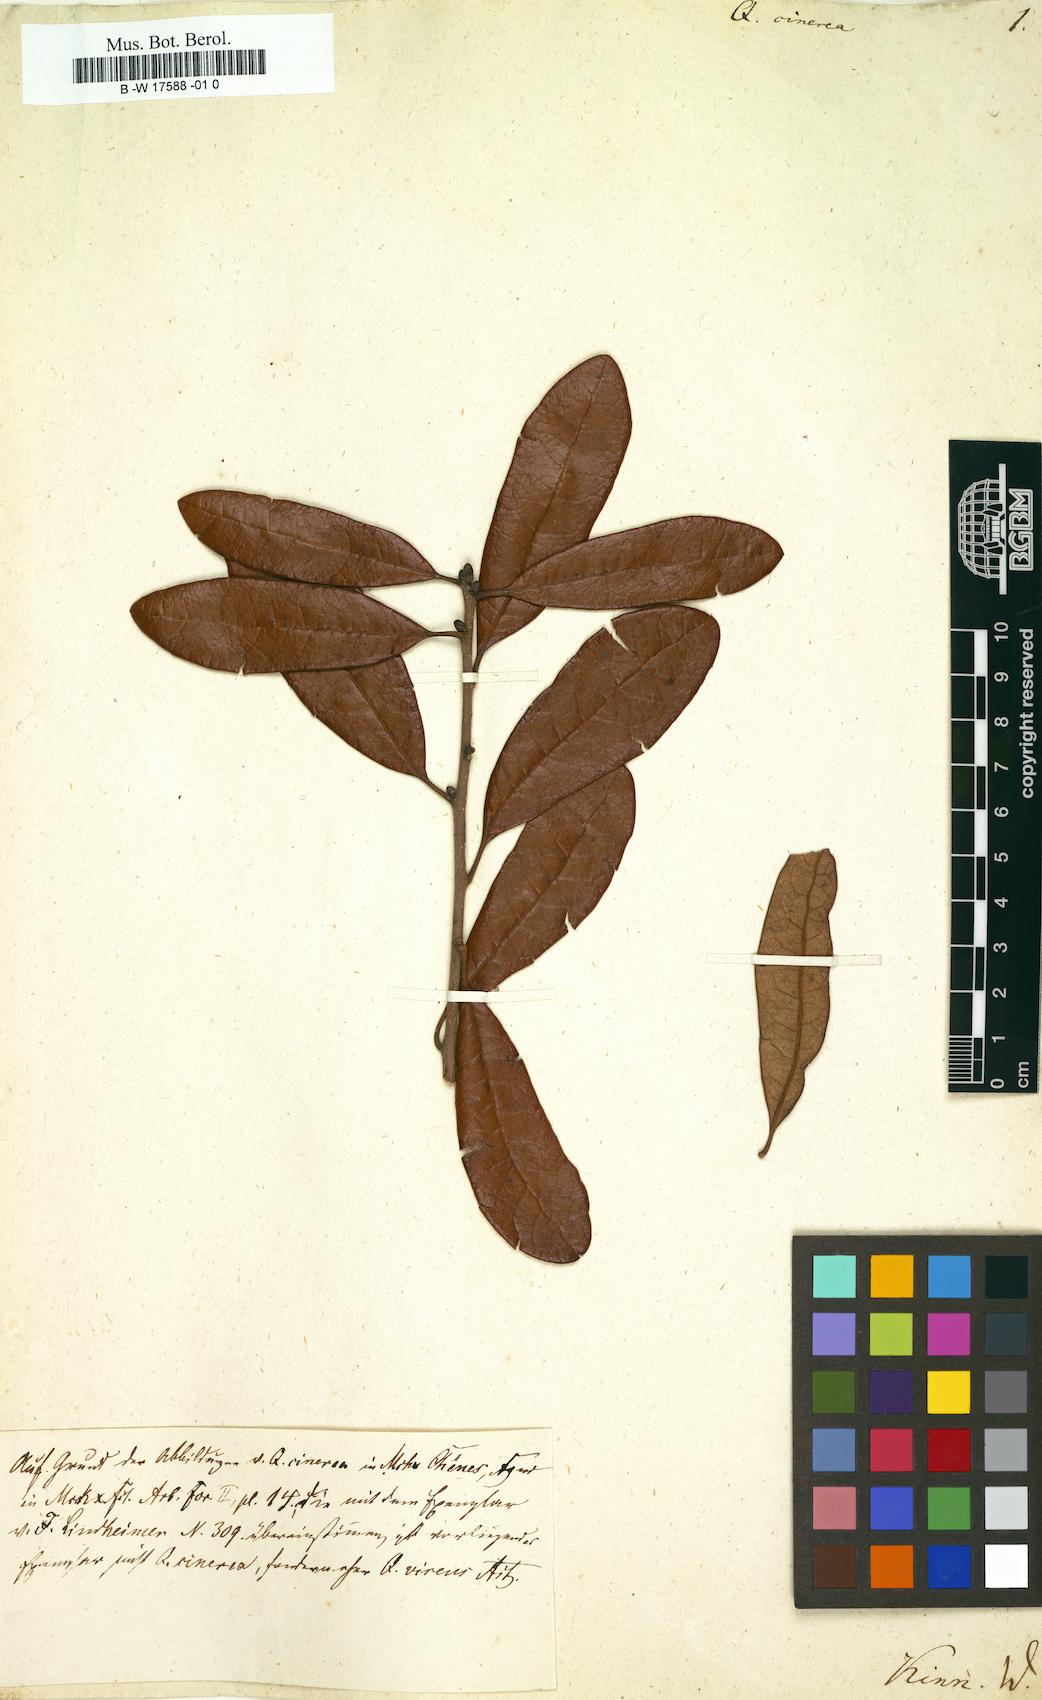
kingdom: Plantae
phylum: Tracheophyta
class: Magnoliopsida
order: Fagales
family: Fagaceae
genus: Quercus
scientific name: Quercus incana
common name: Bluejack oak
